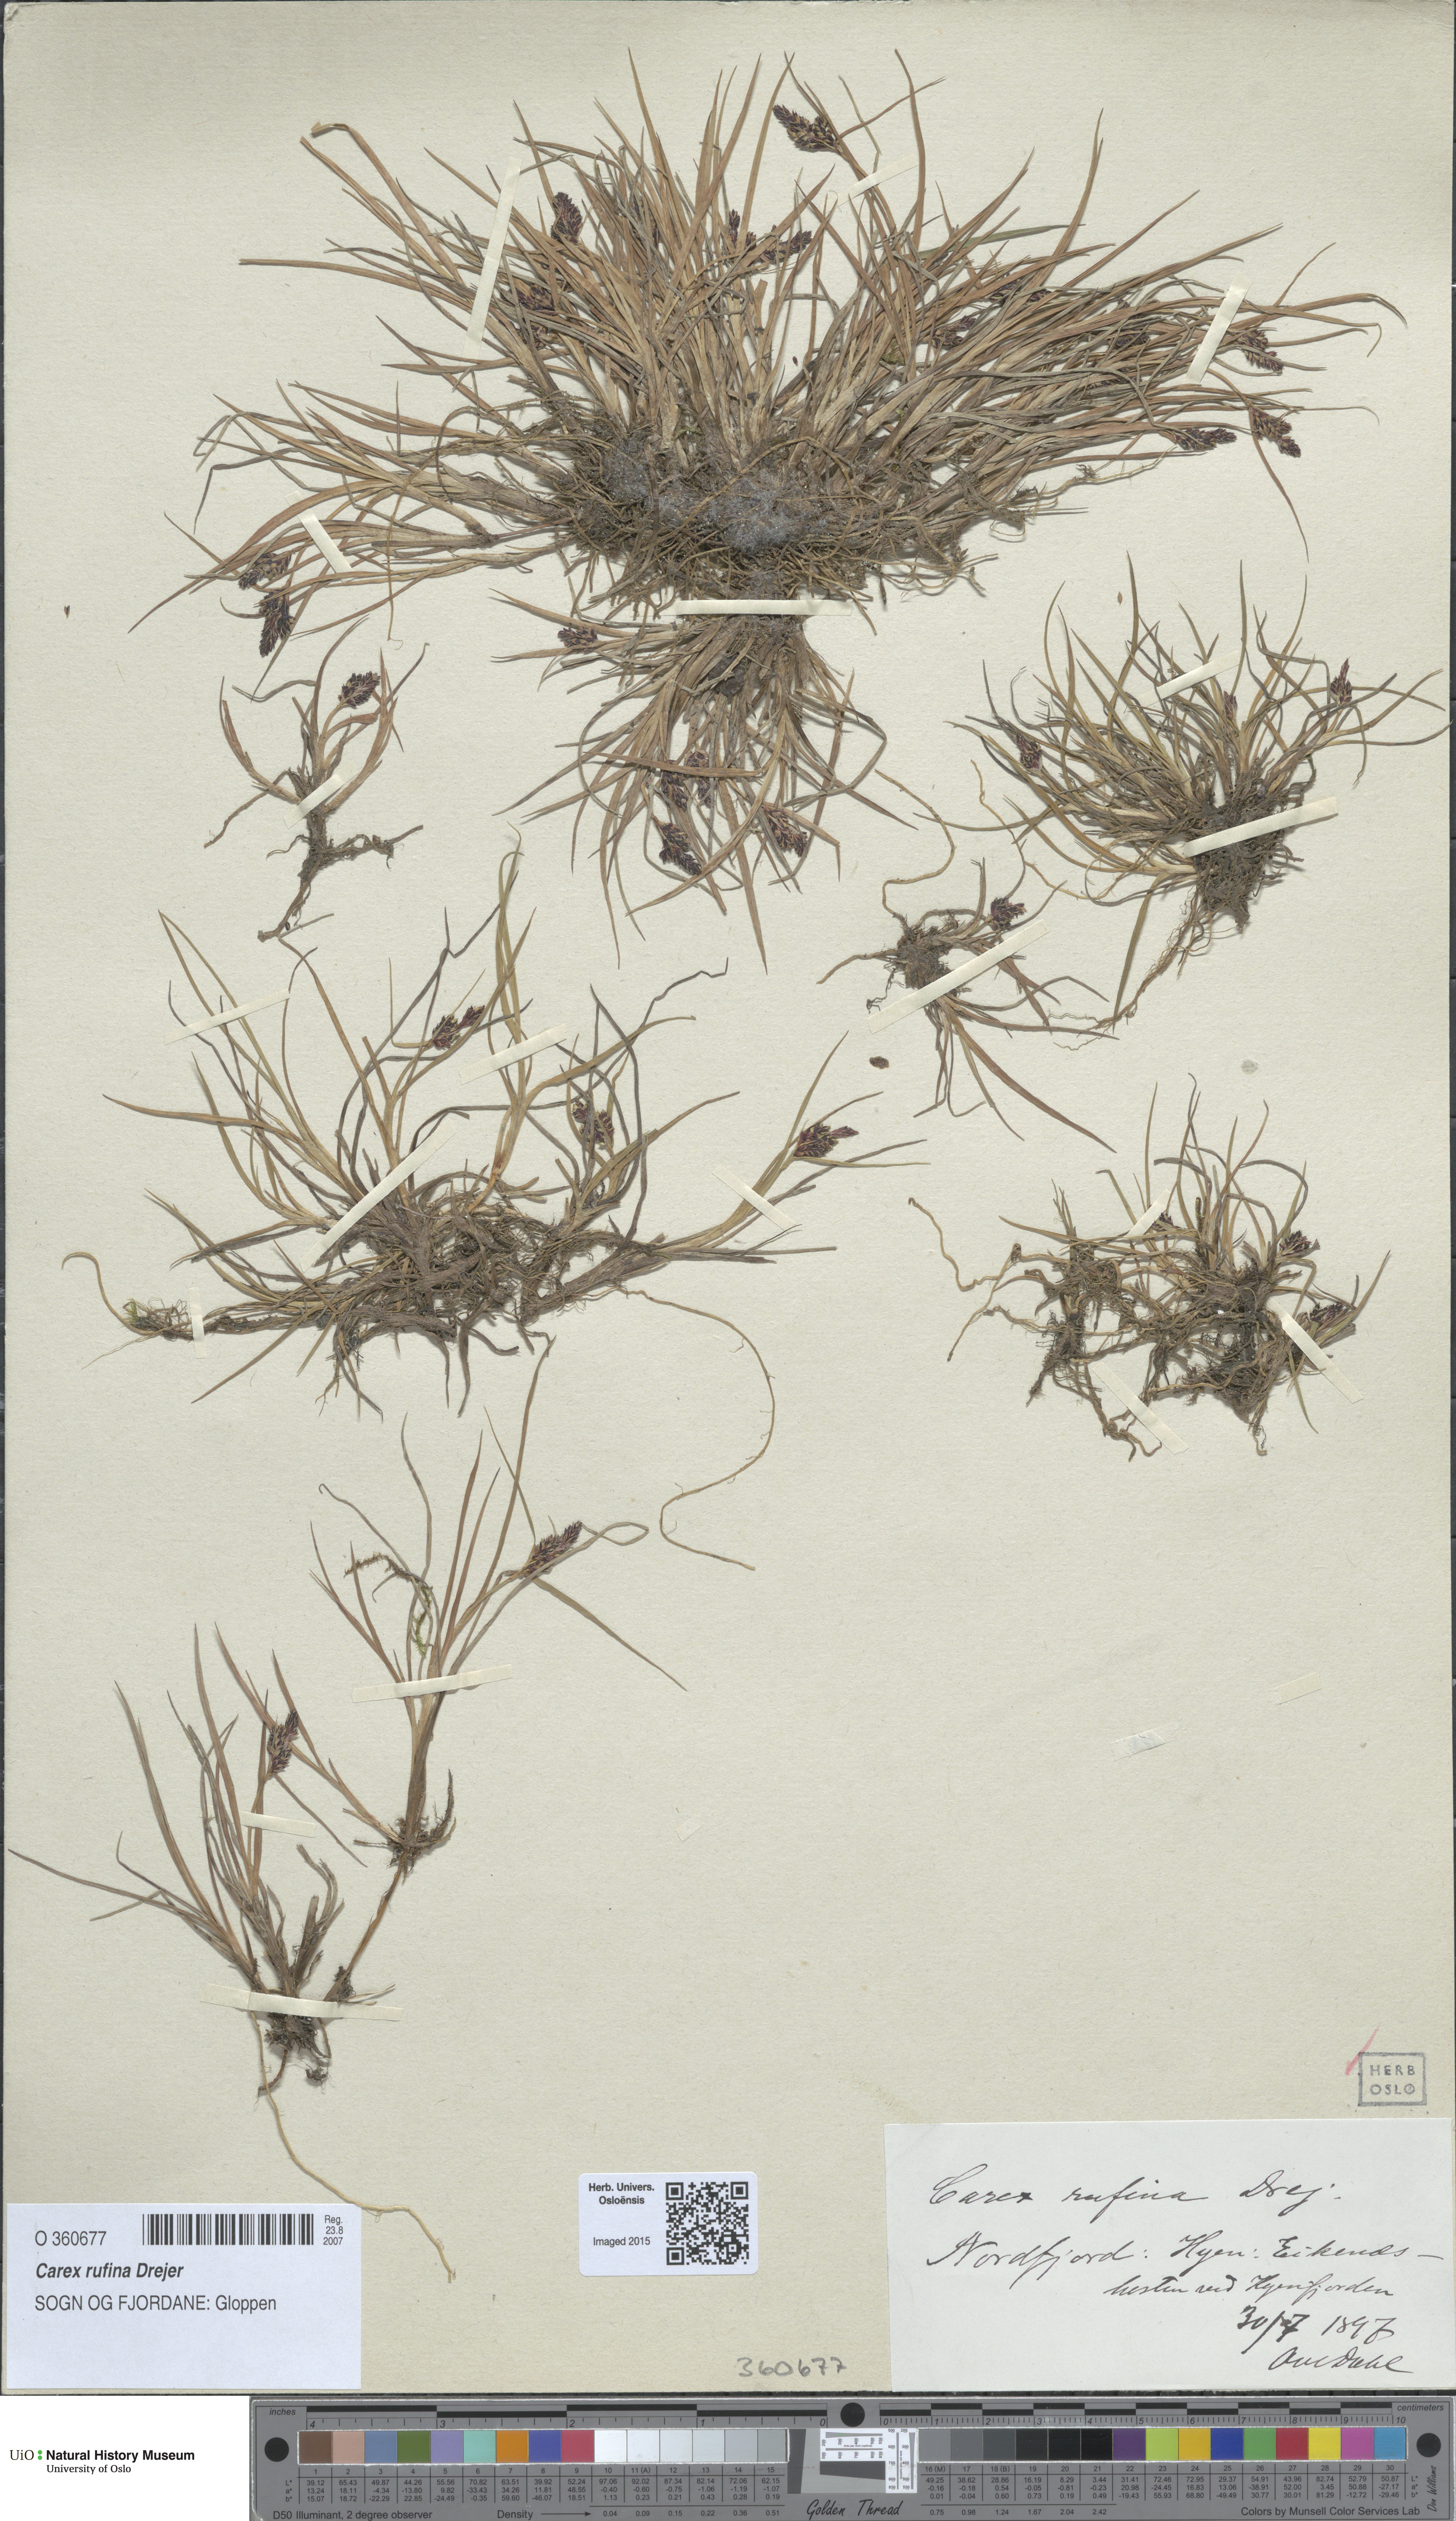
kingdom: Plantae
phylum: Tracheophyta
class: Liliopsida
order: Poales
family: Cyperaceae
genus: Carex
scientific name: Carex rufina
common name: Reddish sedge
